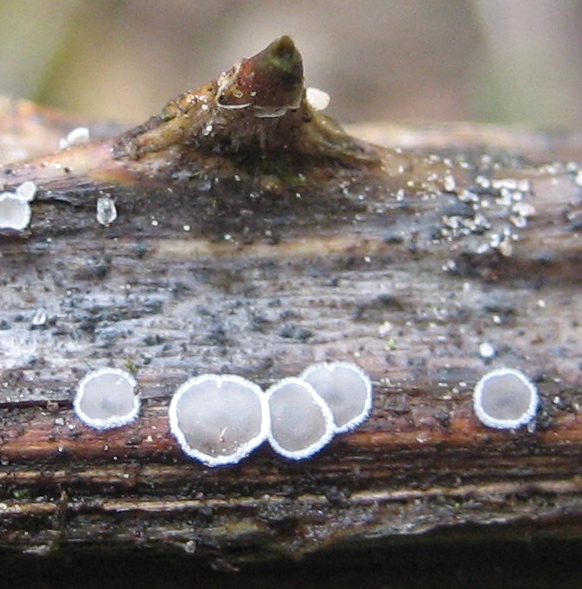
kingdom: Fungi
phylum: Basidiomycota
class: Agaricomycetes
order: Agaricales
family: Niaceae
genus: Lachnella
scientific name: Lachnella alboviolascens
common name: grå frynserede
